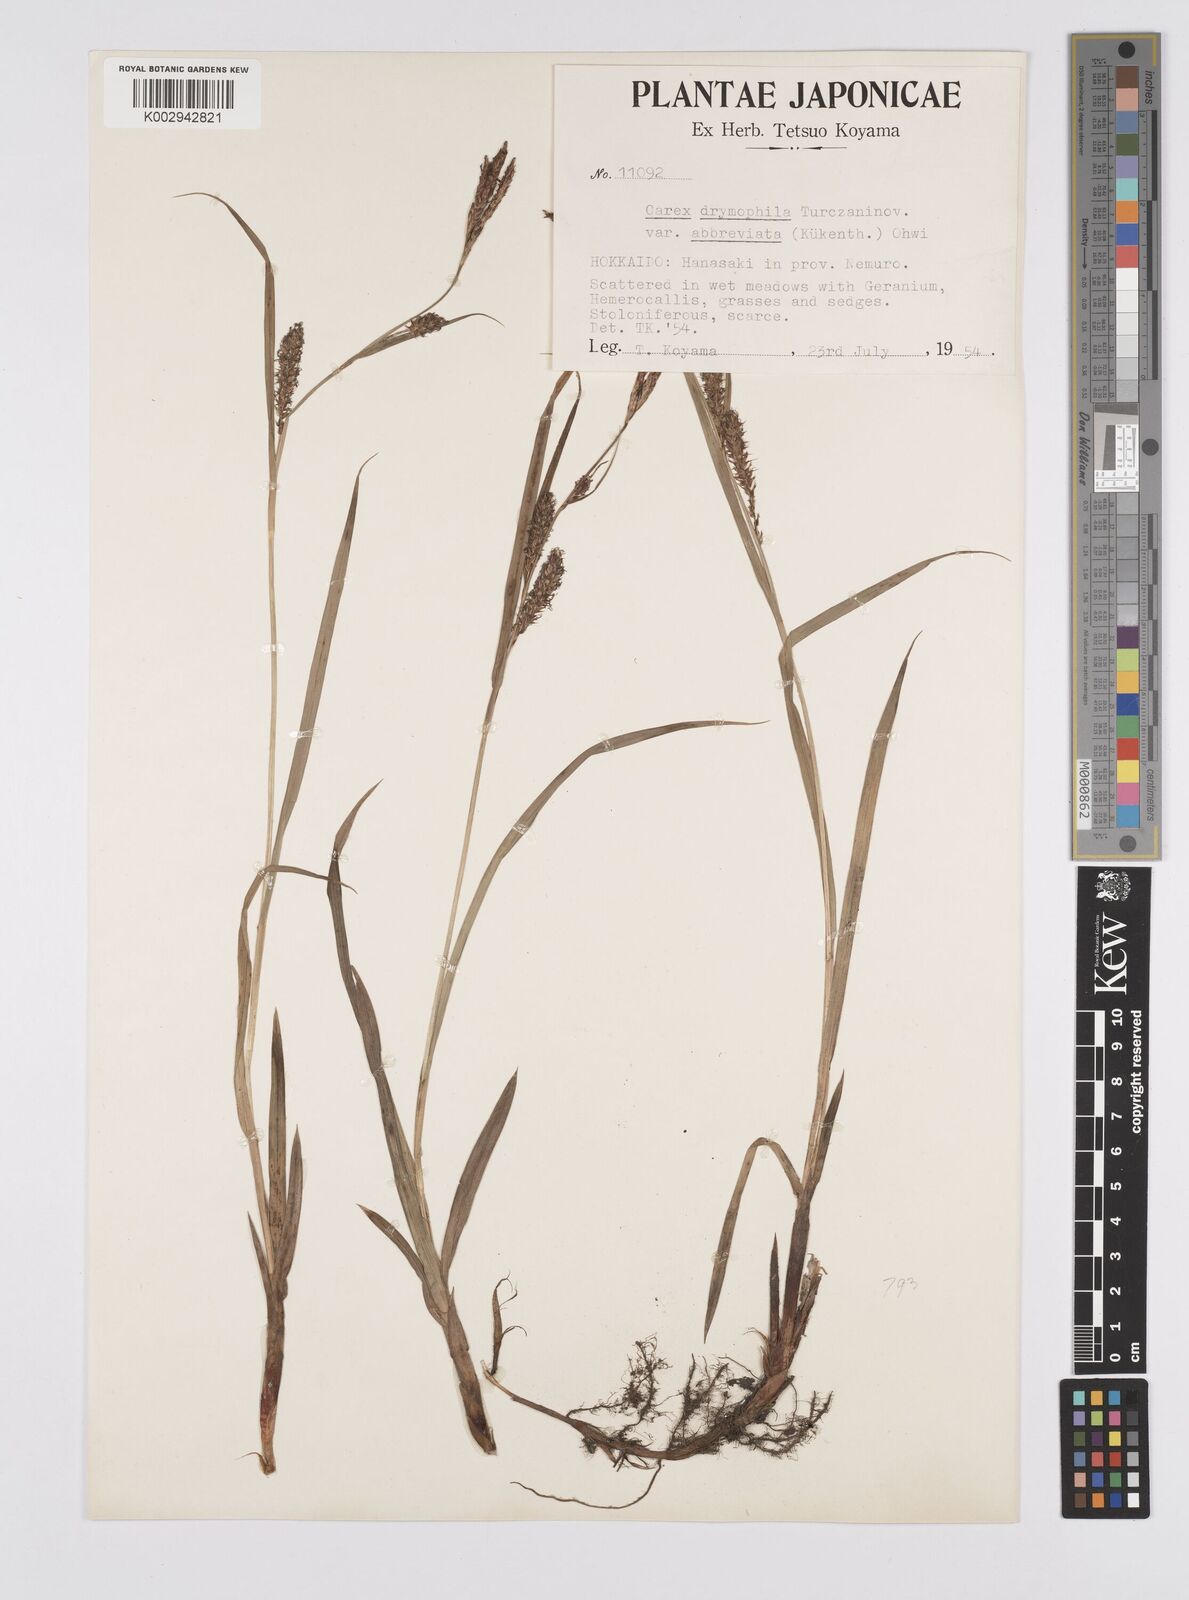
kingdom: Plantae
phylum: Tracheophyta
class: Liliopsida
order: Poales
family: Cyperaceae
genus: Carex
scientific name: Carex drymophila
